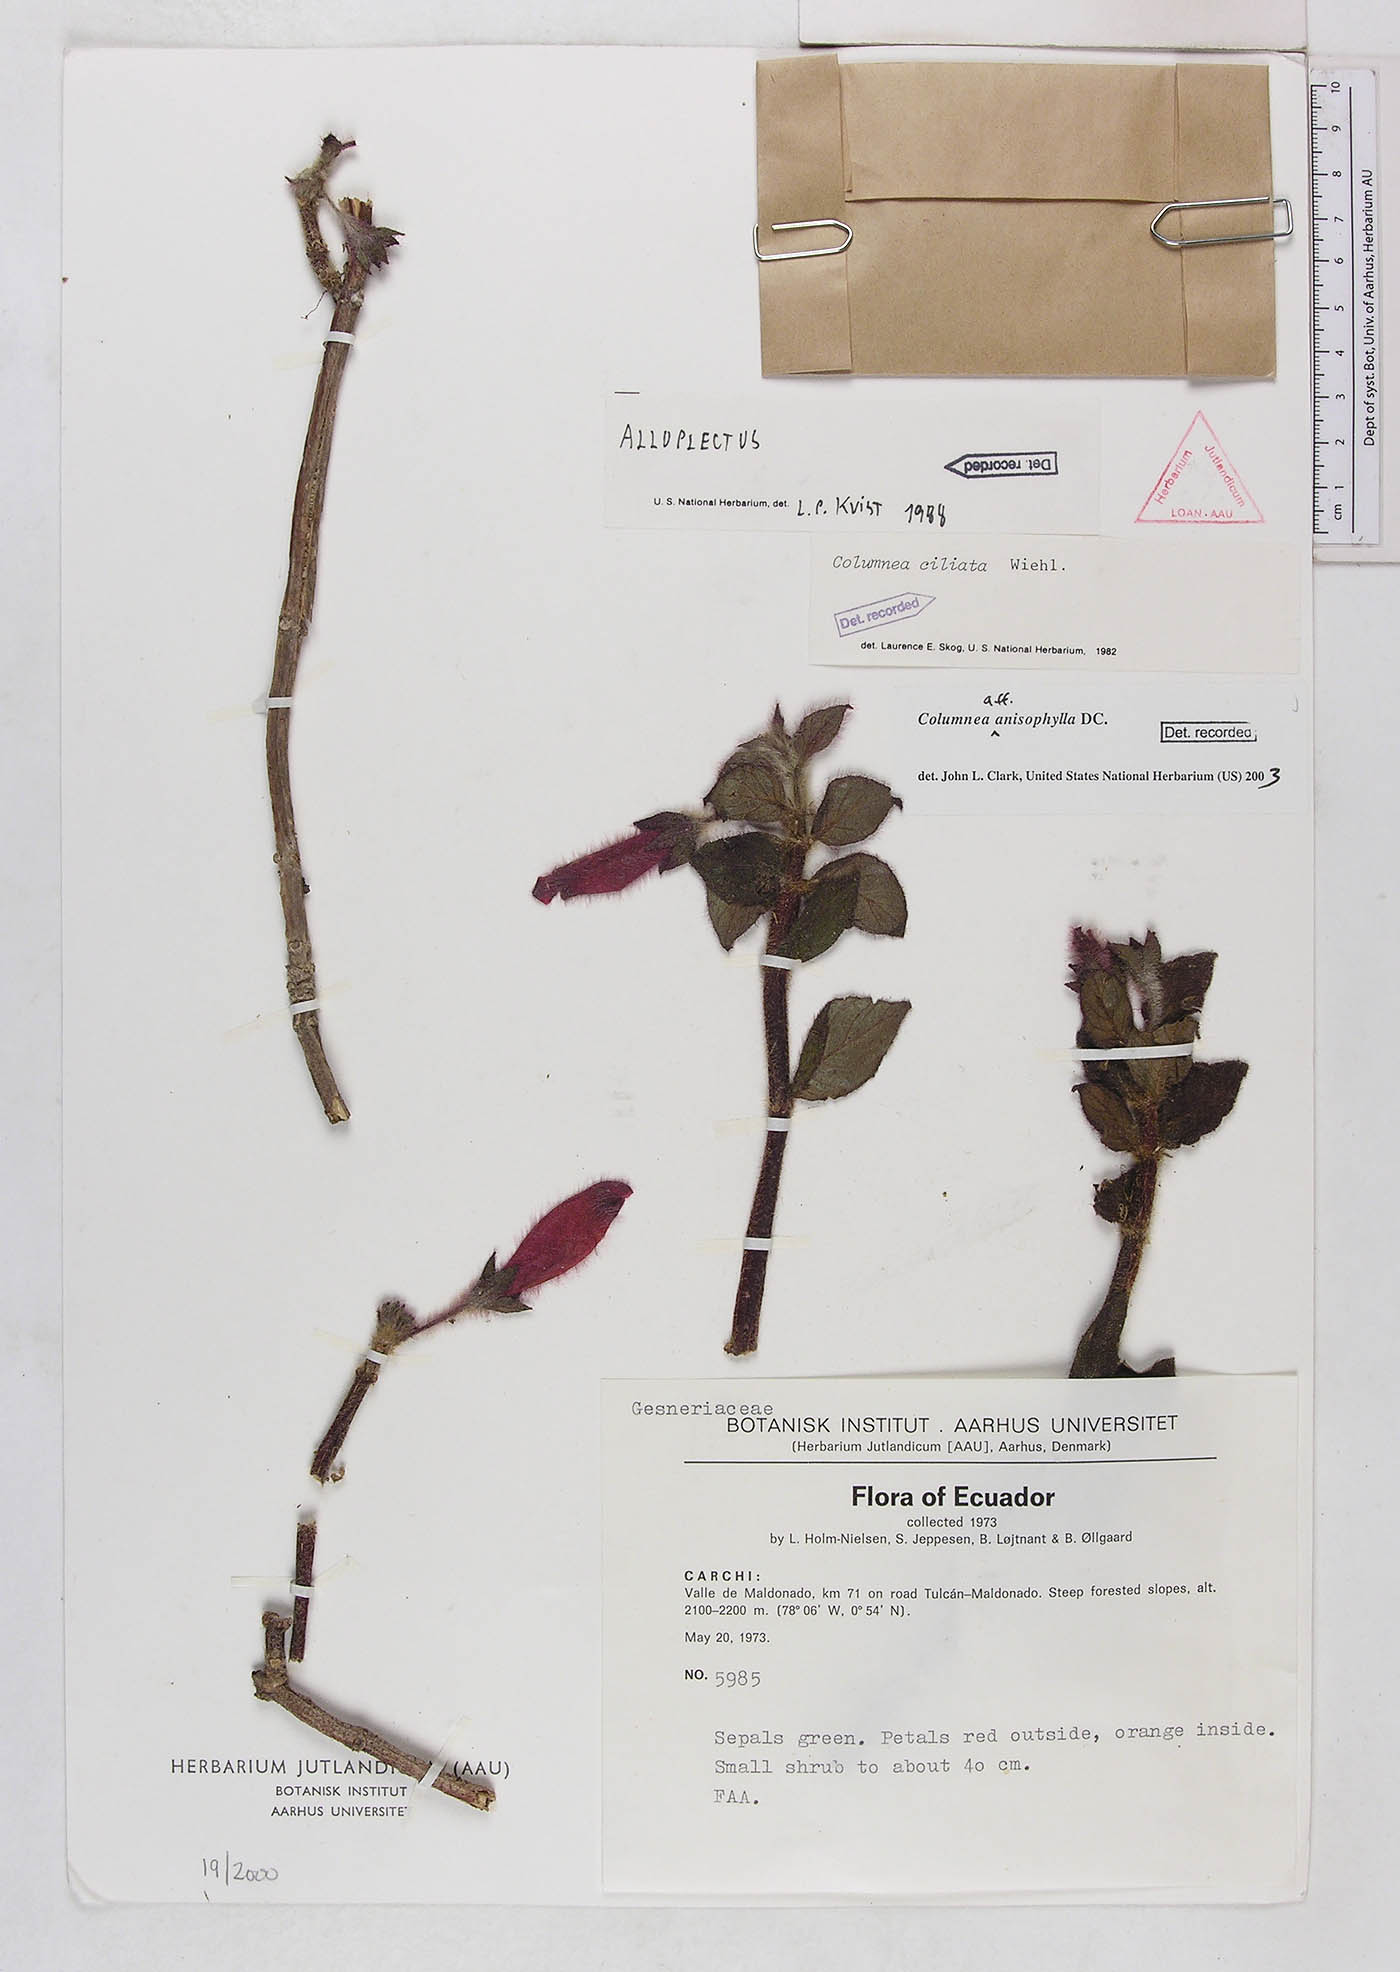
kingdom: Plantae
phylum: Tracheophyta
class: Magnoliopsida
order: Lamiales
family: Gesneriaceae
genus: Columnea
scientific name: Columnea anisophylla
